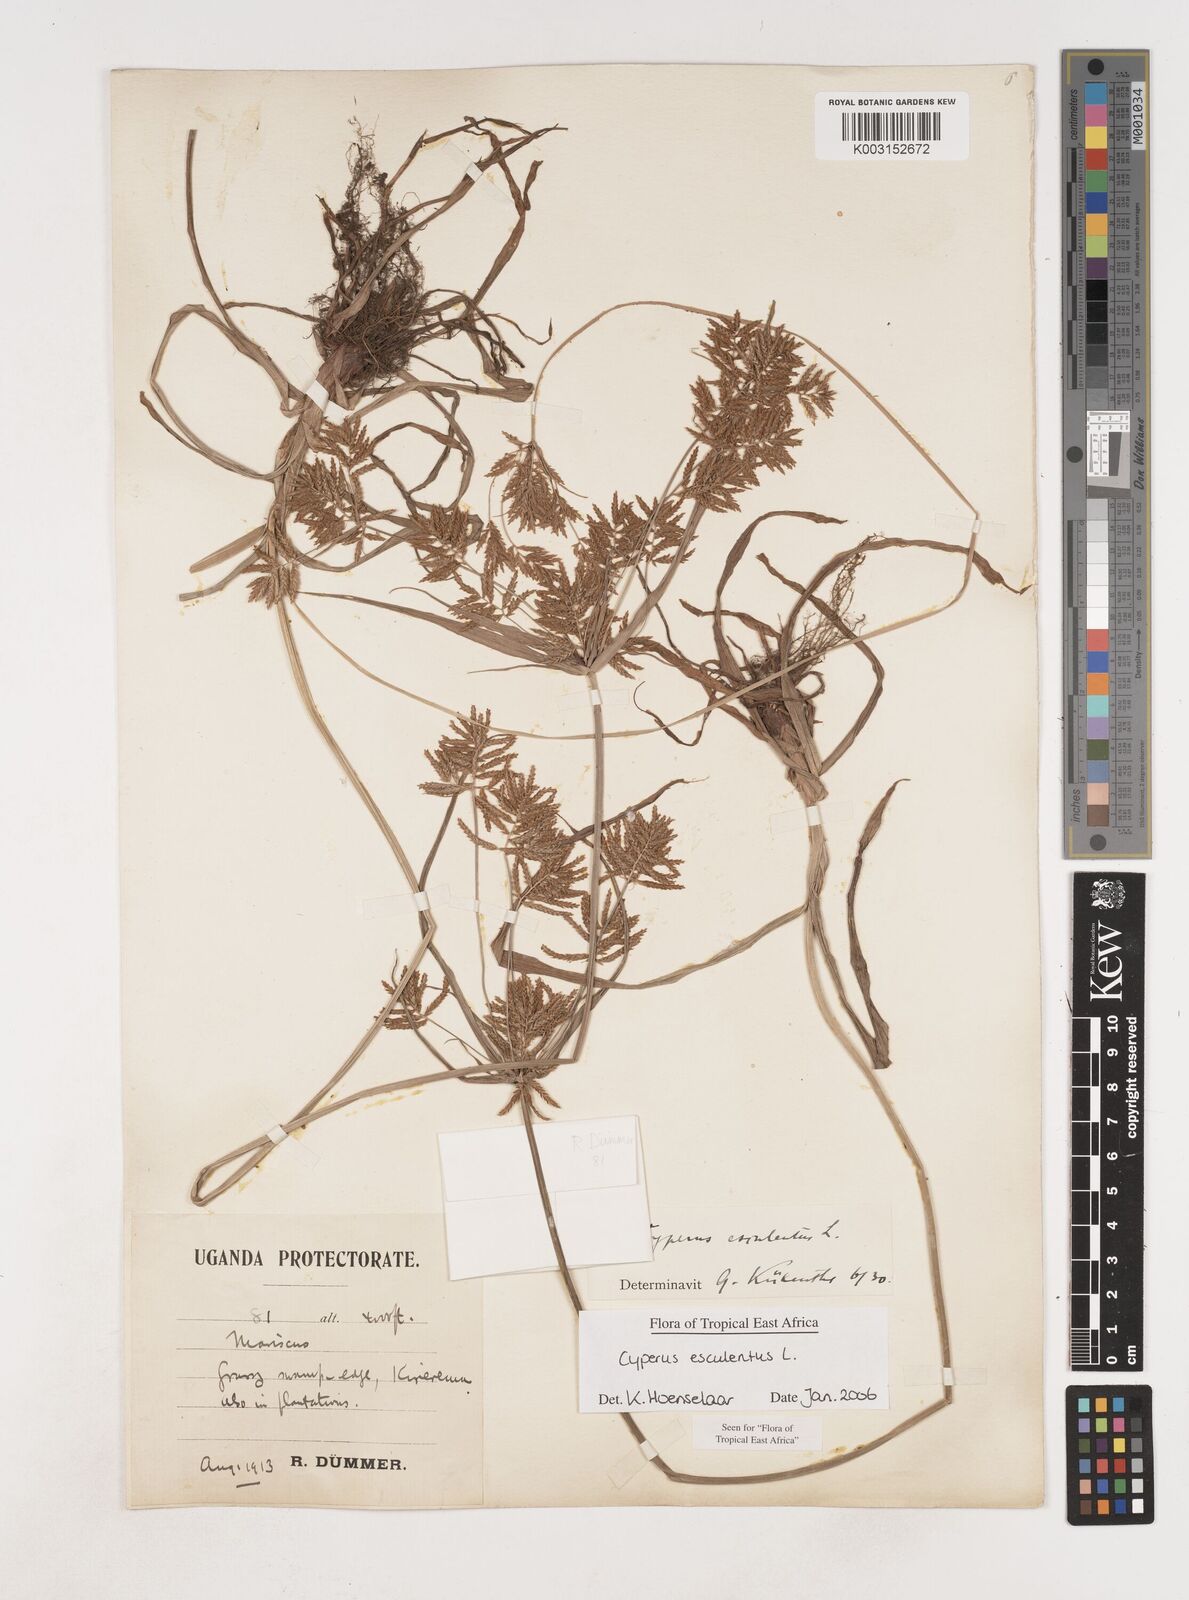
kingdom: Plantae
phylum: Tracheophyta
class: Liliopsida
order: Poales
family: Cyperaceae
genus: Cyperus
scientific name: Cyperus esculentus
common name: Yellow nutsedge
